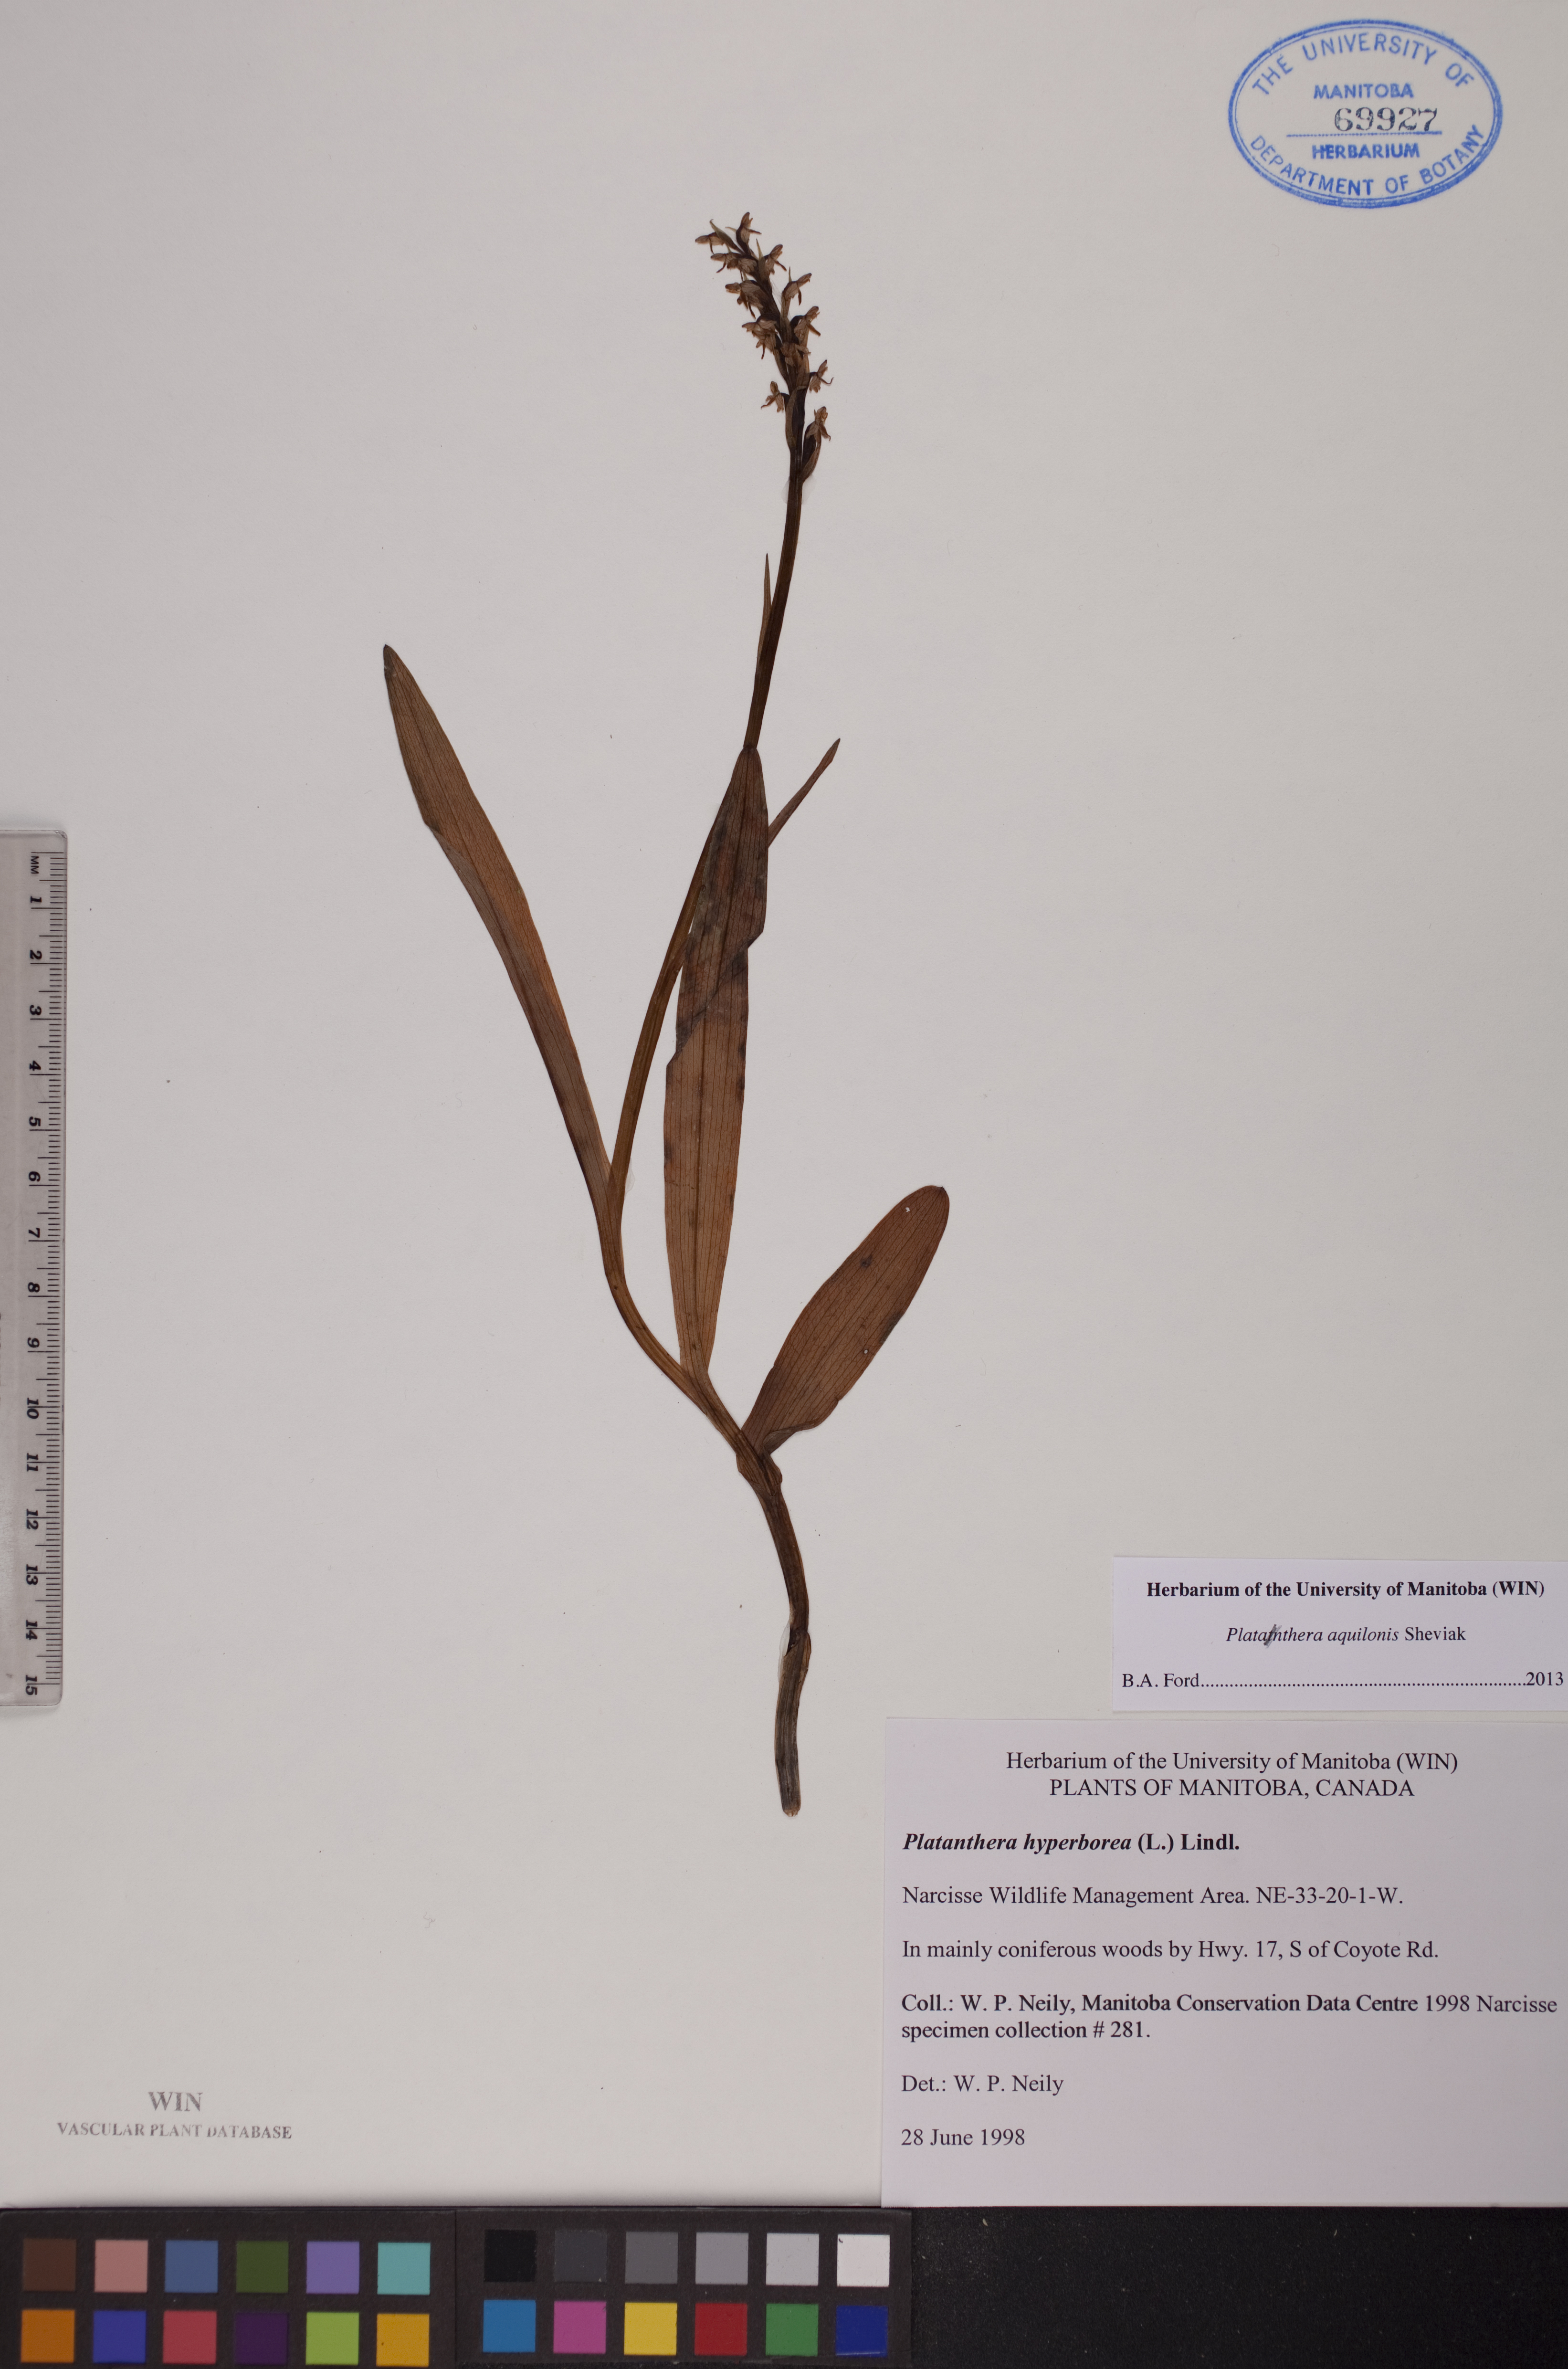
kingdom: Plantae
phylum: Tracheophyta
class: Liliopsida
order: Asparagales
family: Orchidaceae
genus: Platanthera
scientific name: Platanthera aquilonis
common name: Northern green orchid
